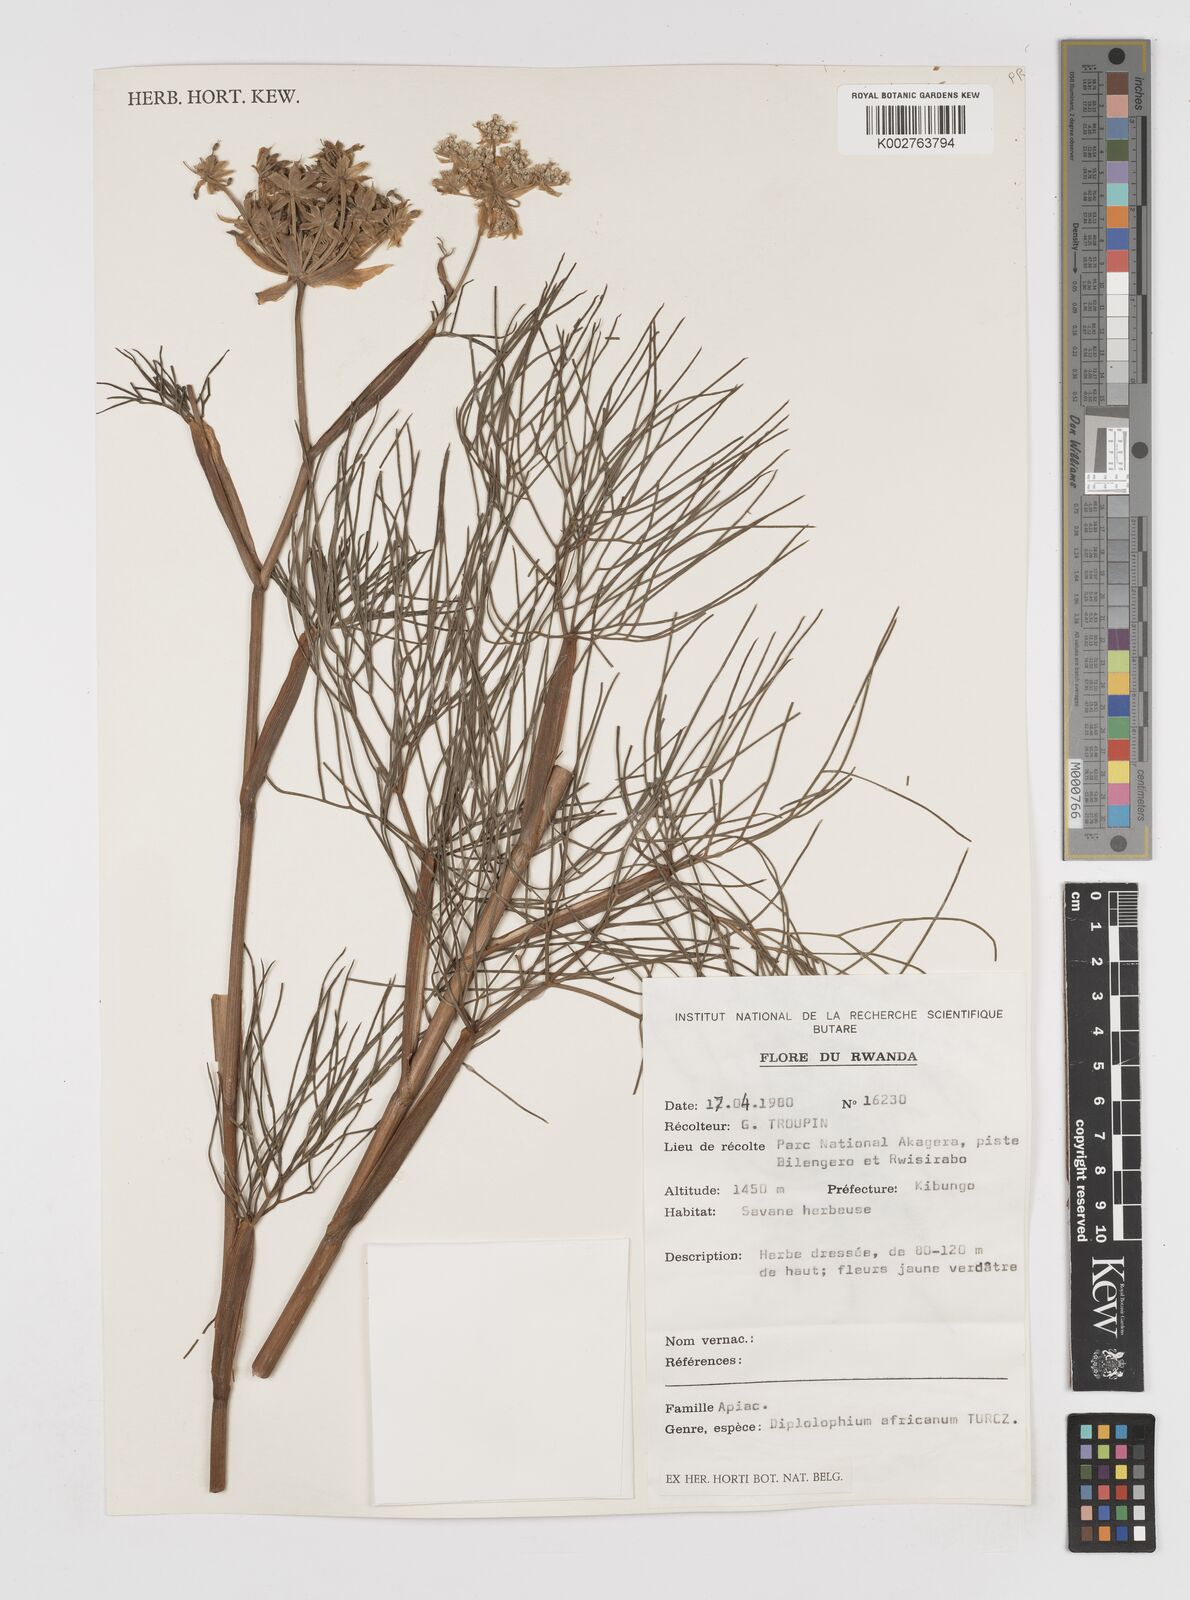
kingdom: Plantae
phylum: Tracheophyta
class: Magnoliopsida
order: Apiales
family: Apiaceae
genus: Diplolophium
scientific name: Diplolophium africanum
